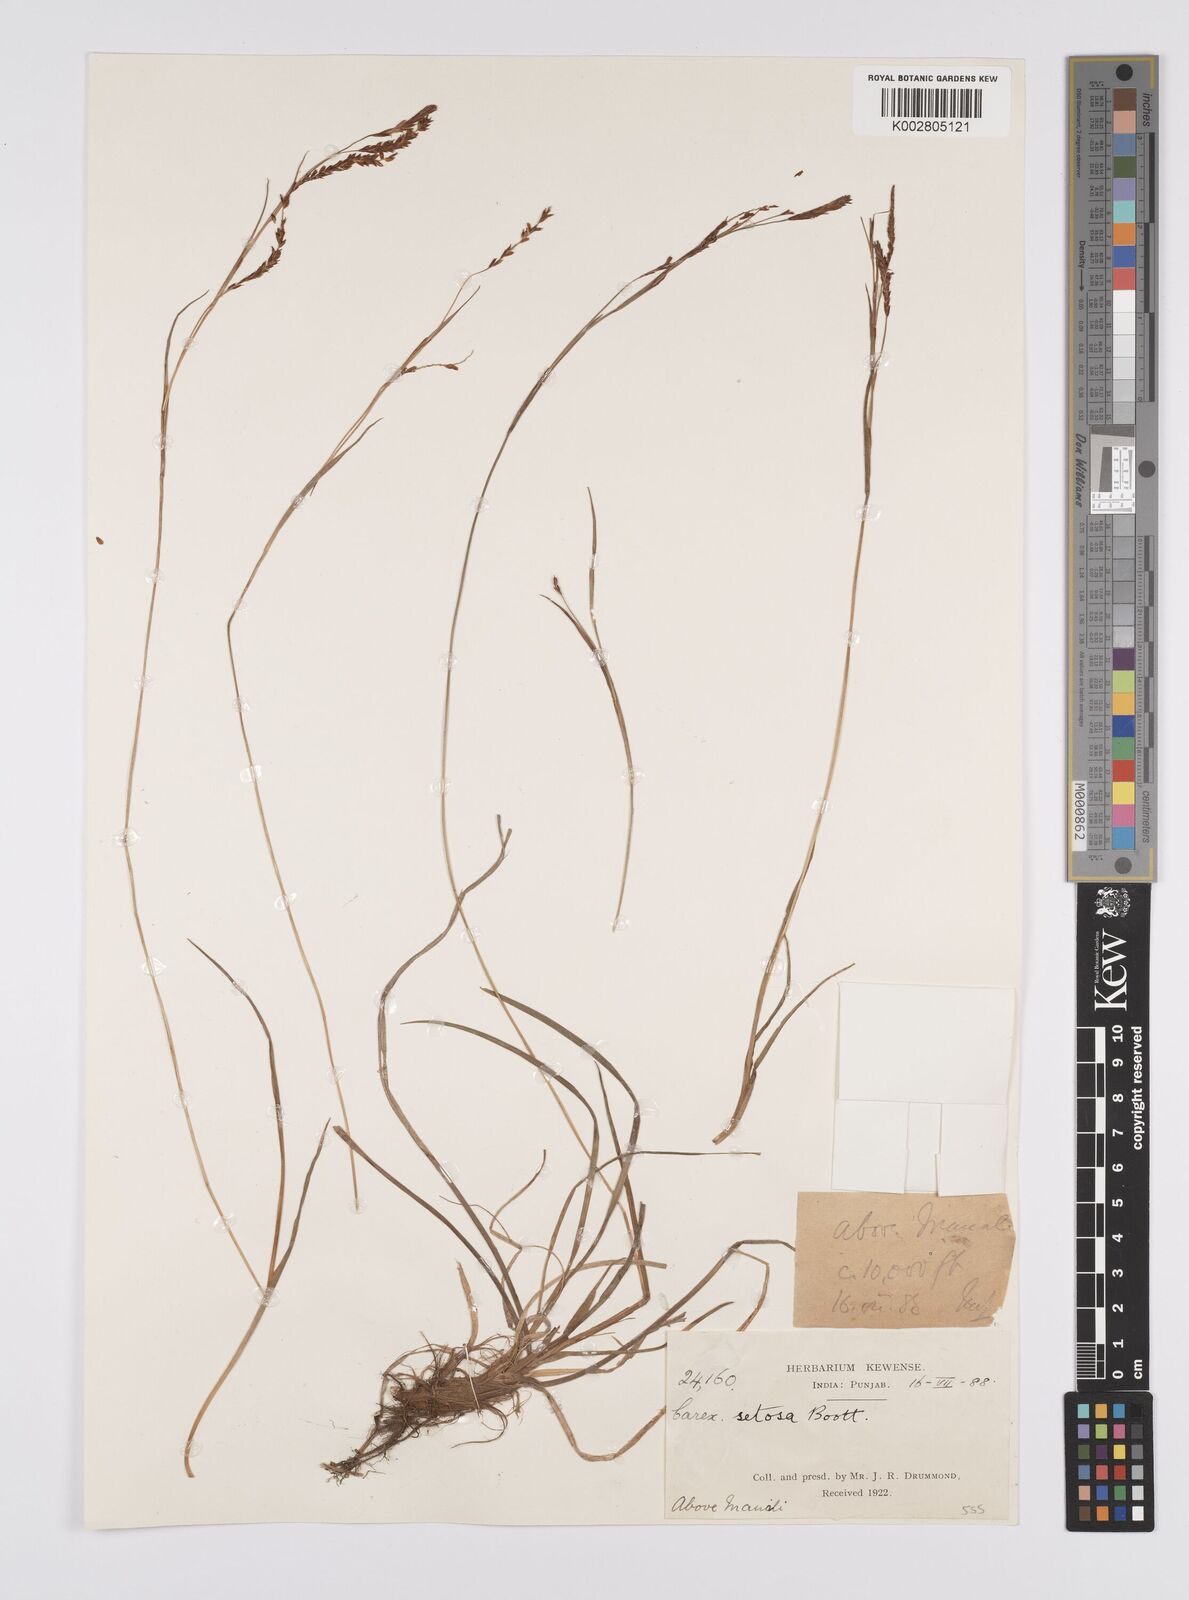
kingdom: Plantae
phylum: Tracheophyta
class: Liliopsida
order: Poales
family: Cyperaceae
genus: Carex
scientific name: Carex setosa
